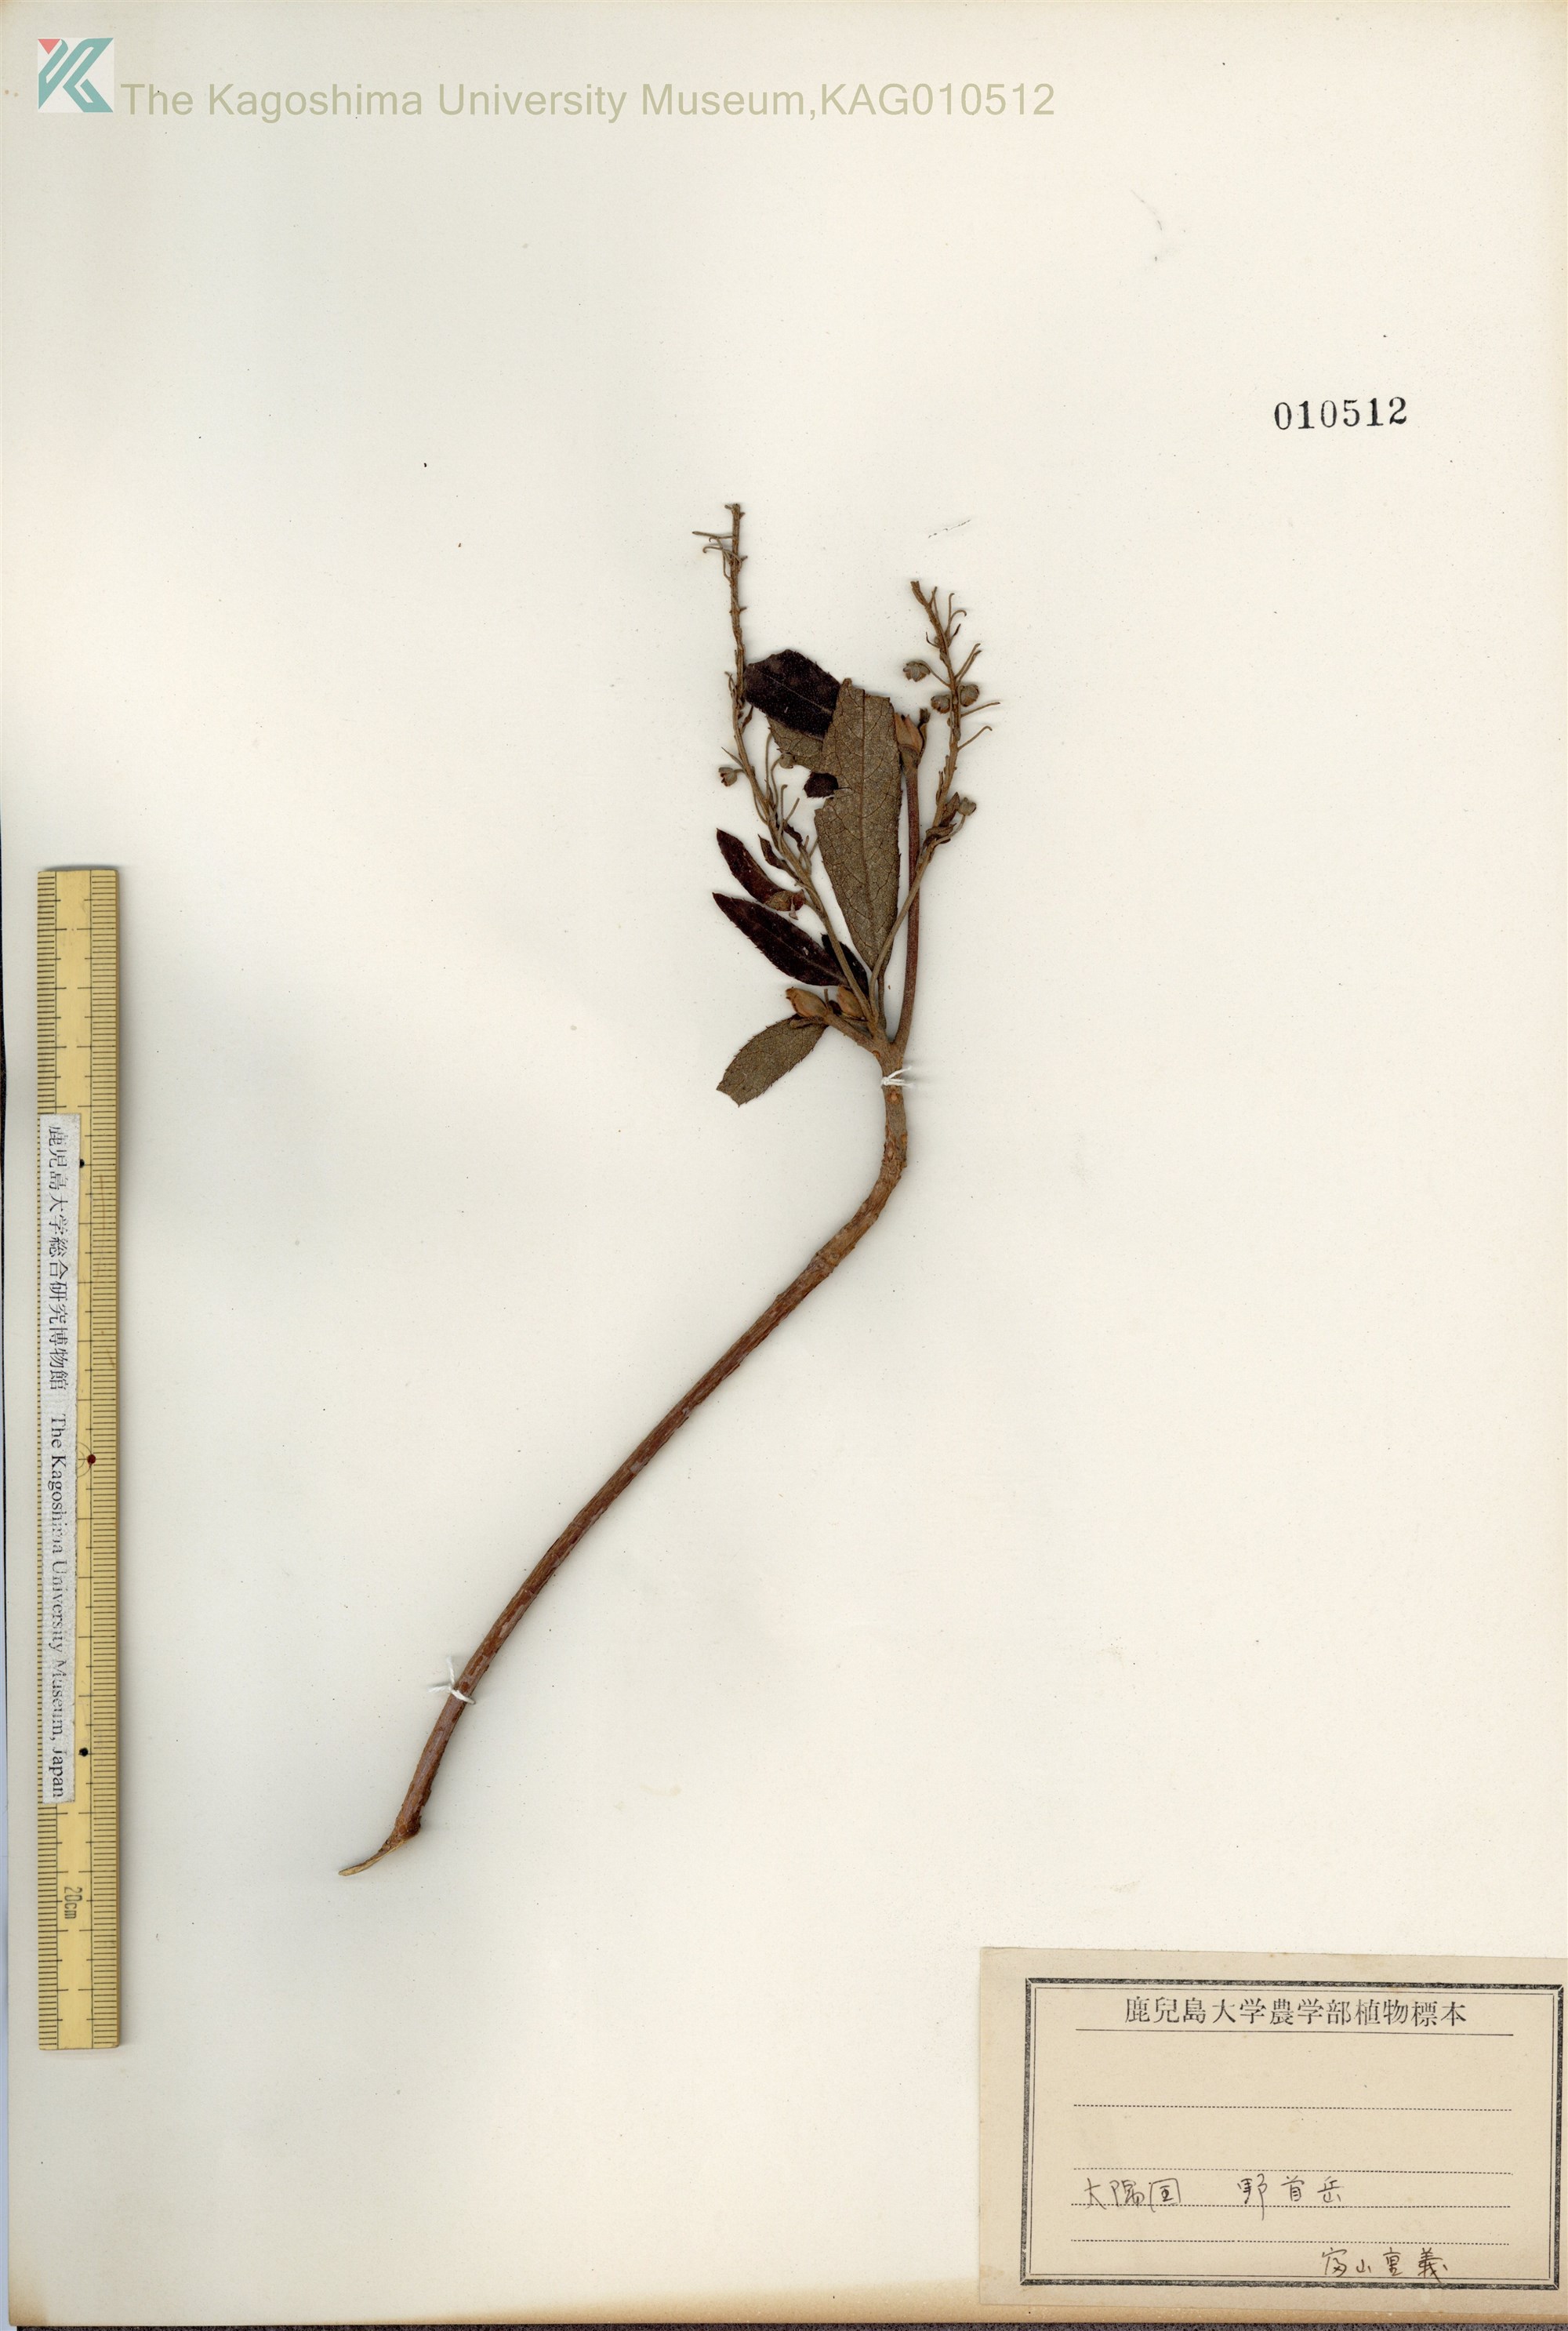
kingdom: Plantae
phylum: Tracheophyta
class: Magnoliopsida
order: Ericales
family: Clethraceae
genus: Clethra
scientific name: Clethra barbinervis
